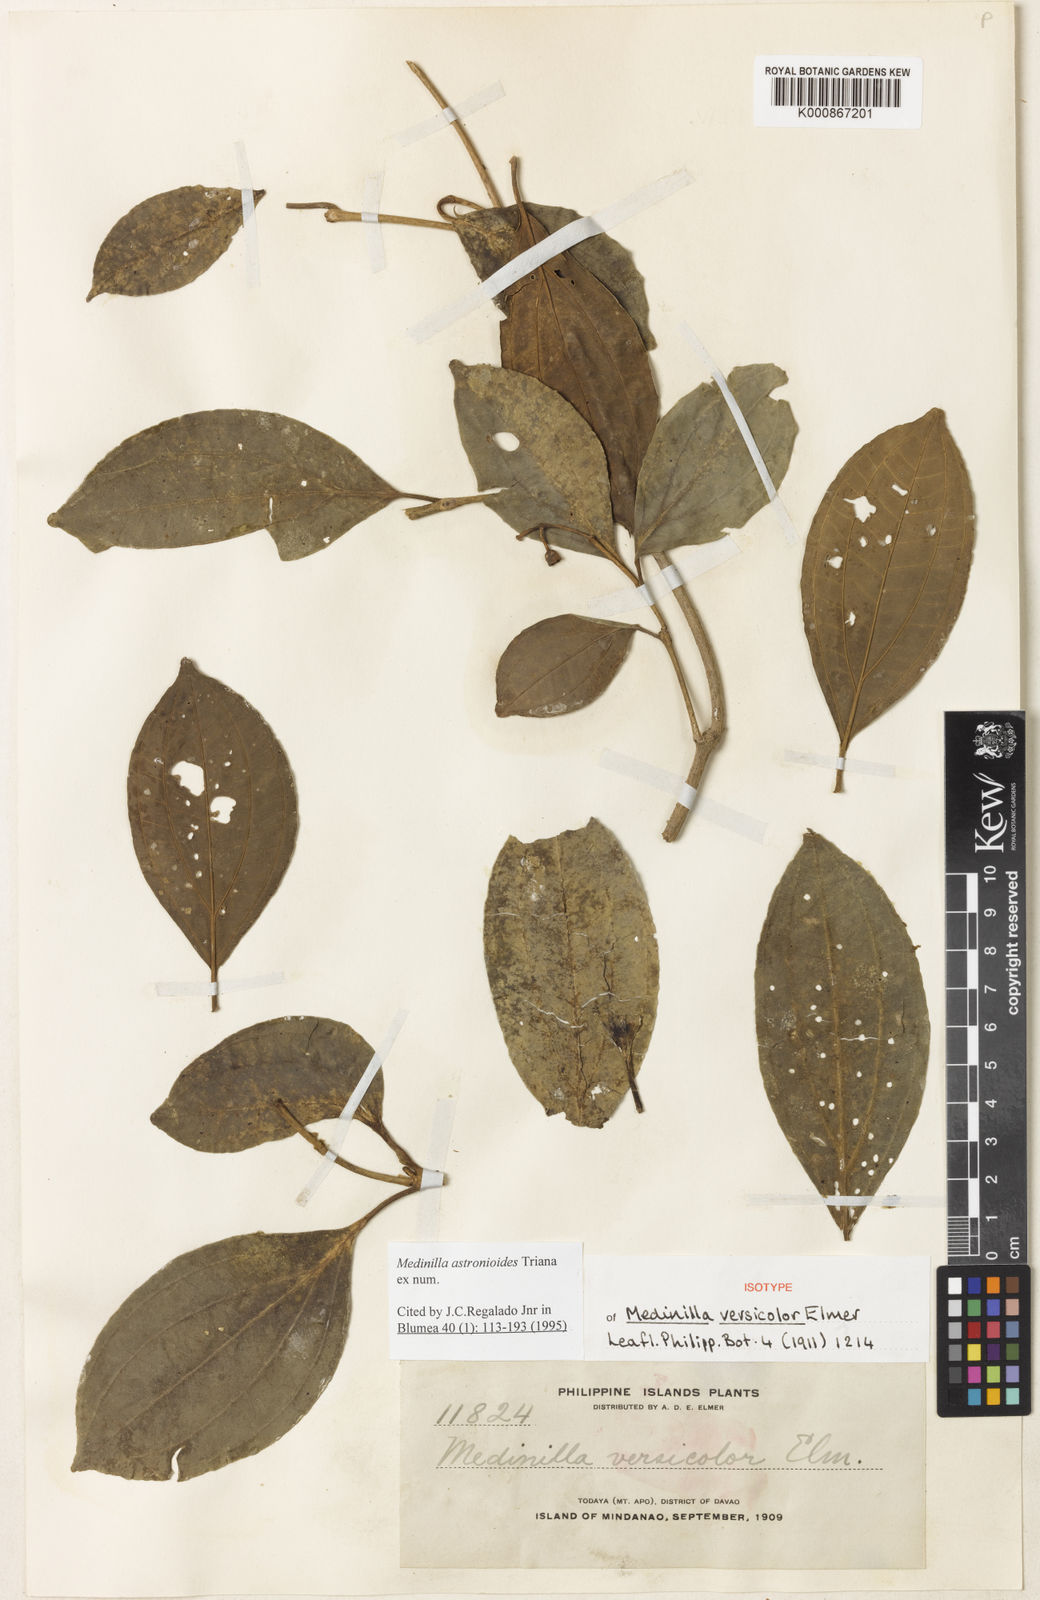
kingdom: Plantae
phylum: Tracheophyta
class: Magnoliopsida
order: Myrtales
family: Melastomataceae
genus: Medinilla
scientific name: Medinilla astronioides
